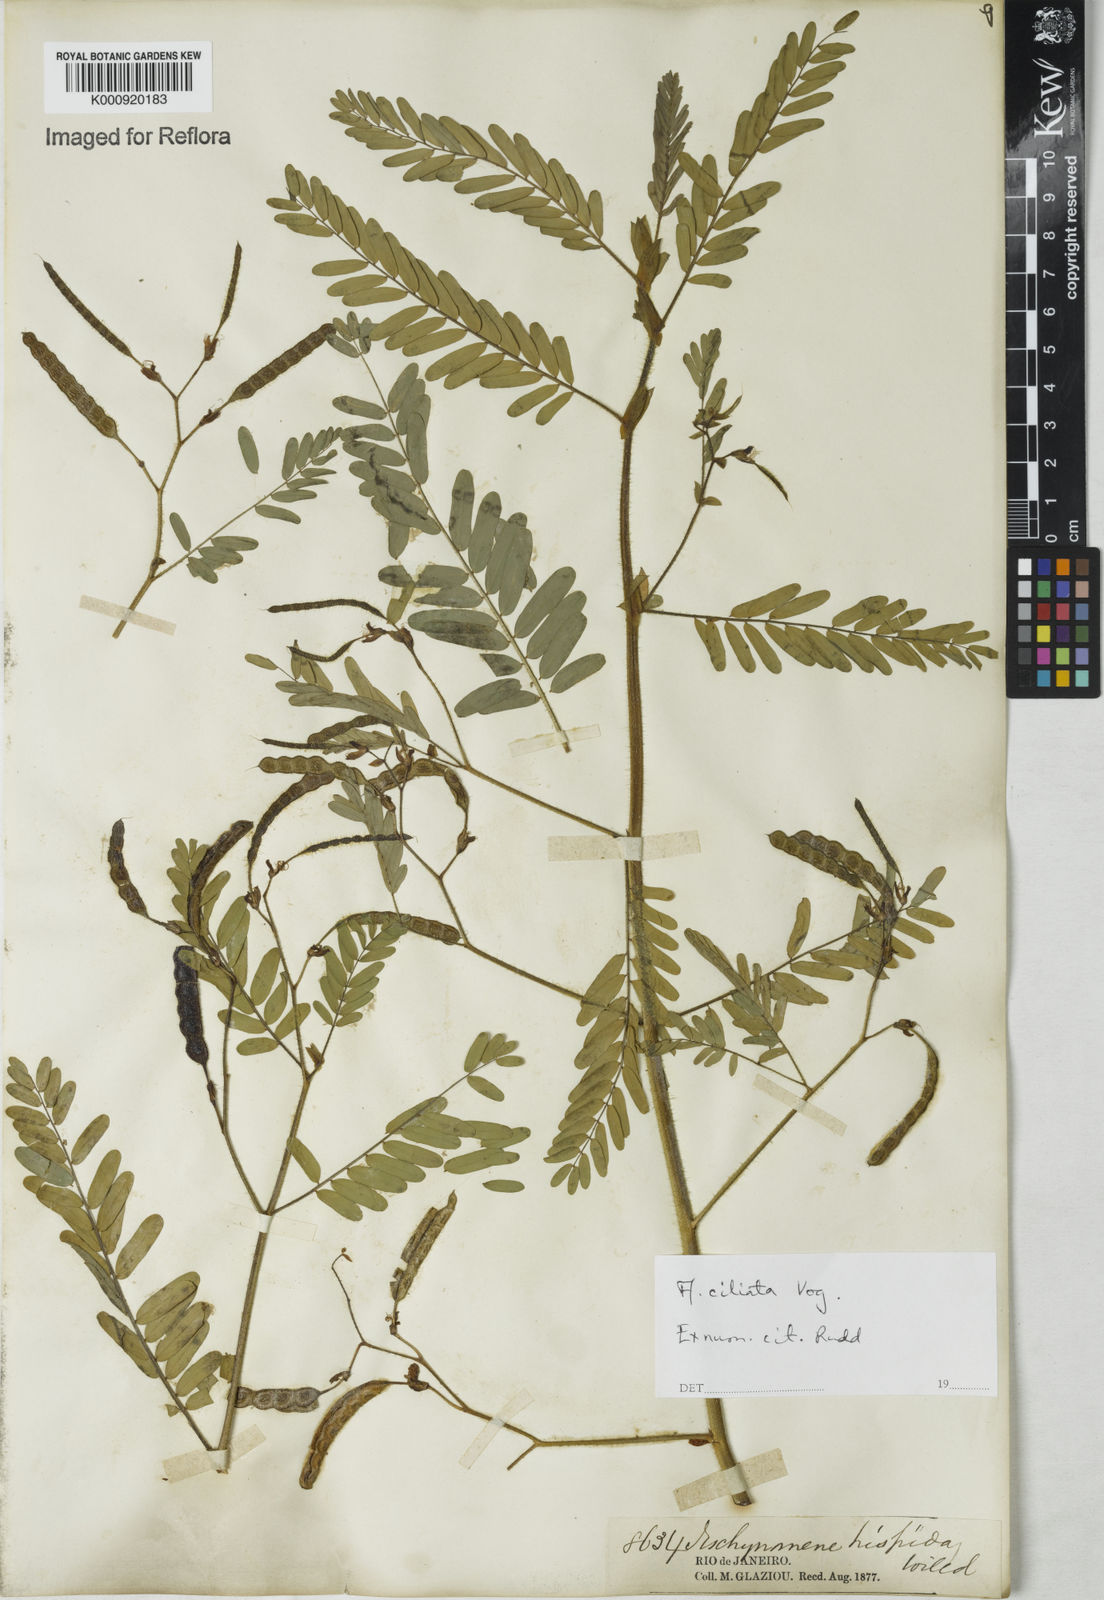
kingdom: Plantae
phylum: Tracheophyta
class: Magnoliopsida
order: Fabales
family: Fabaceae
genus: Aeschynomene
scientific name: Aeschynomene ciliata
